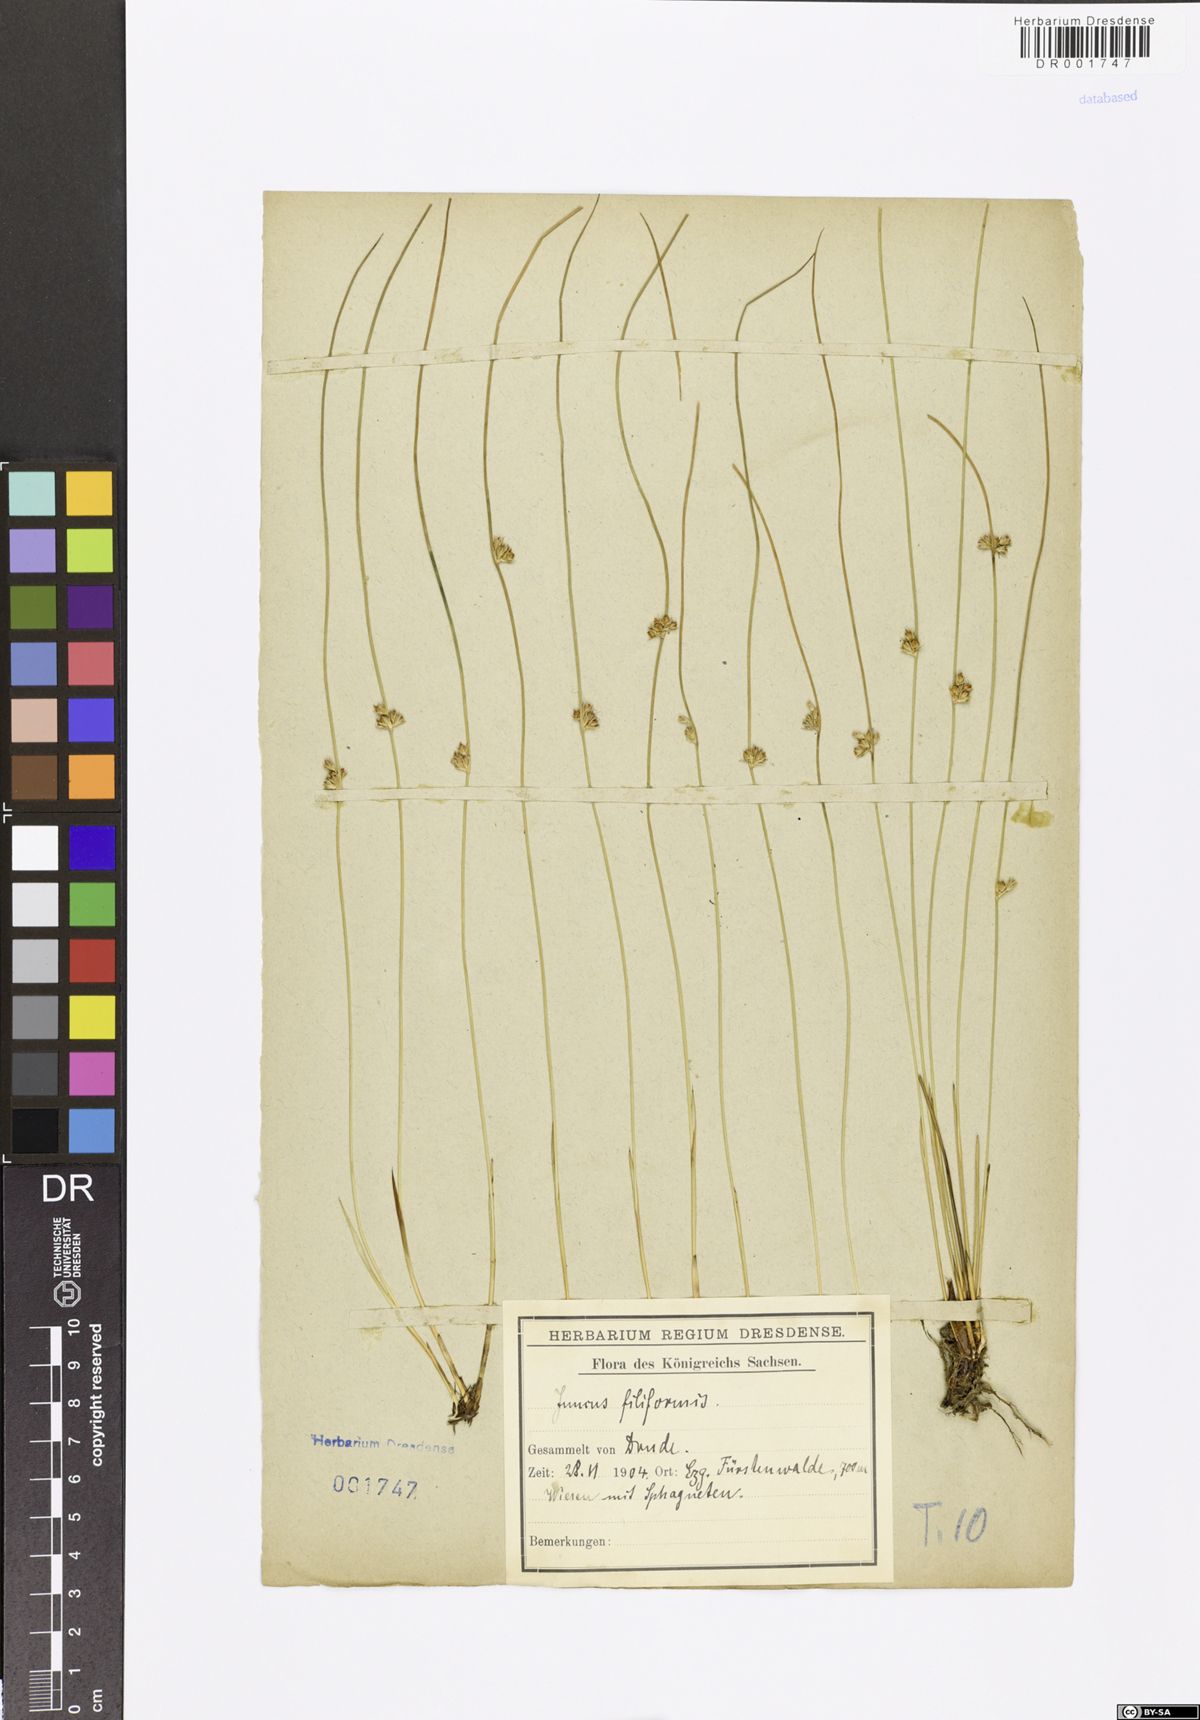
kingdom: Plantae
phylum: Tracheophyta
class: Liliopsida
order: Poales
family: Juncaceae
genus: Juncus
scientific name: Juncus inflexus
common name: Hard rush
